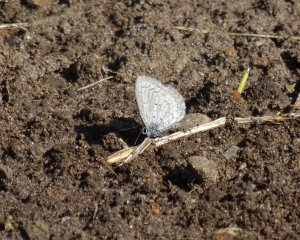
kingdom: Animalia
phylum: Arthropoda
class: Insecta
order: Lepidoptera
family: Lycaenidae
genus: Celastrina
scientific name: Celastrina lucia
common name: Northern Spring Azure
